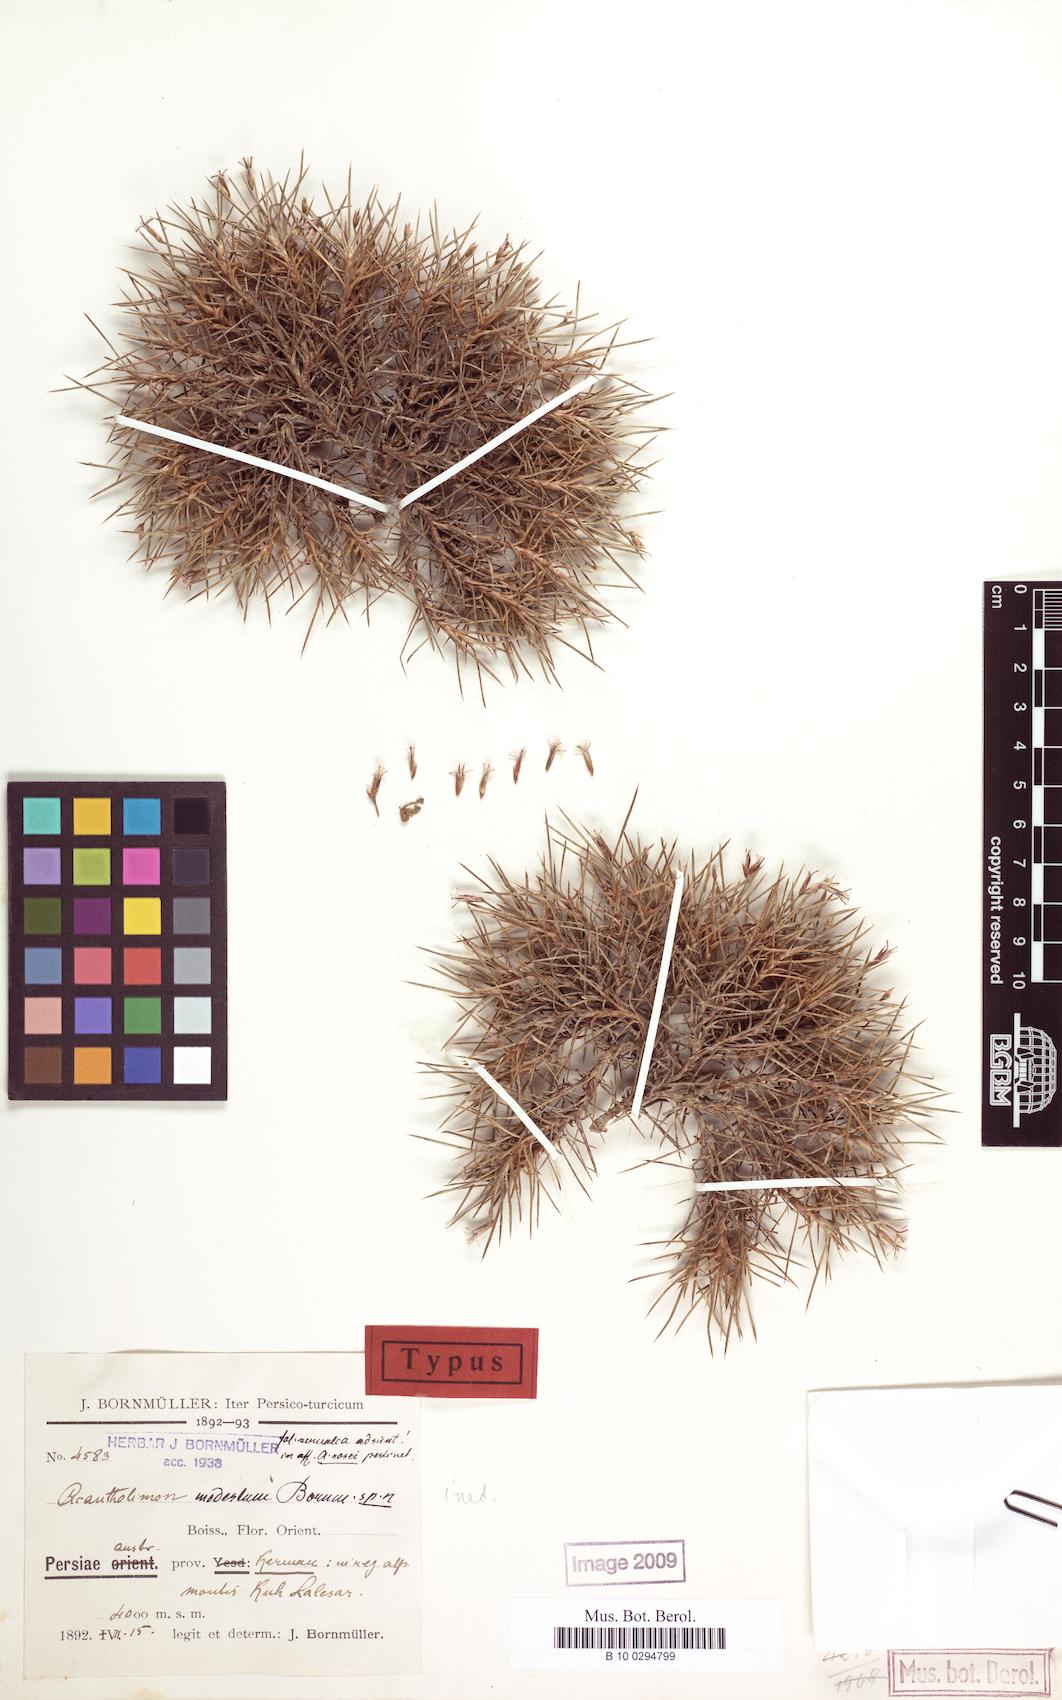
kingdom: Plantae
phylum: Tracheophyta
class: Magnoliopsida
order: Caryophyllales
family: Plumbaginaceae
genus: Acantholimon
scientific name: Acantholimon modestum
